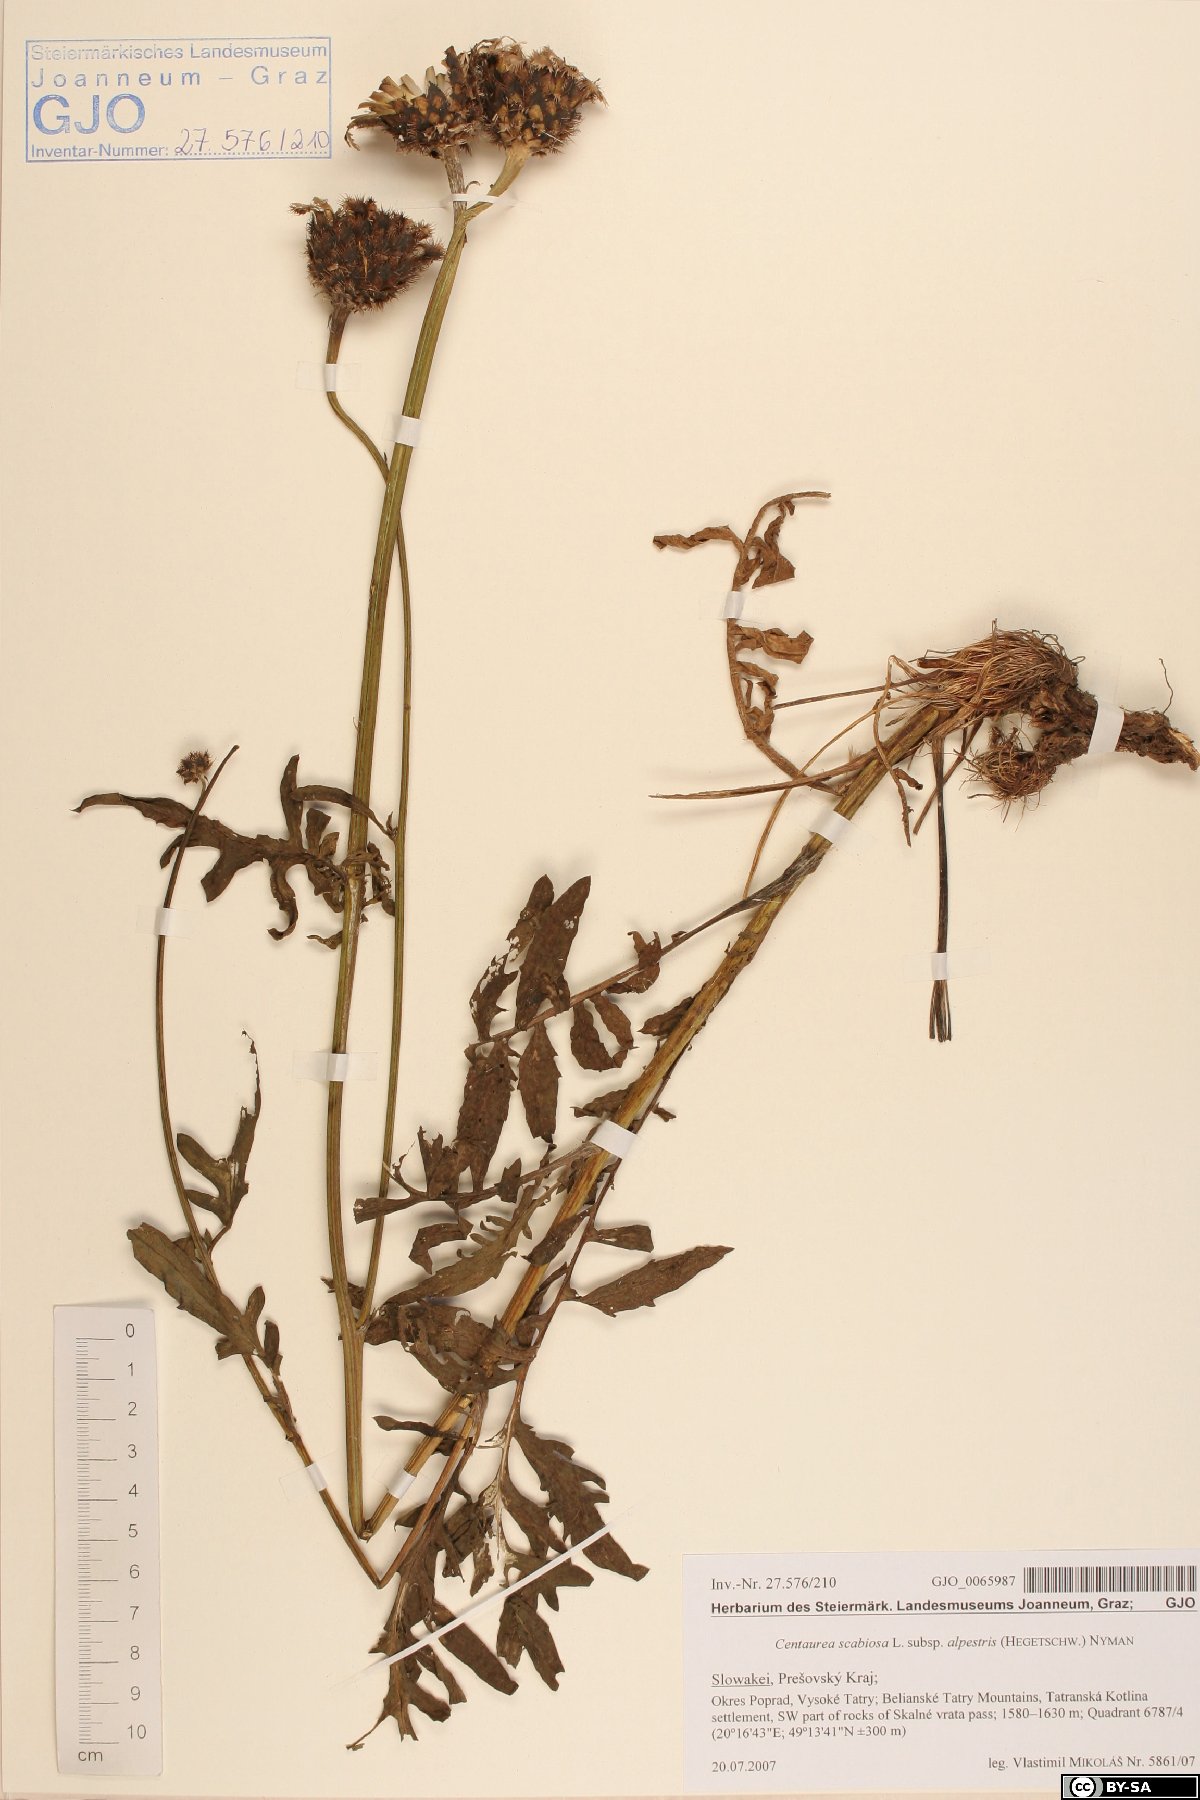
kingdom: Plantae
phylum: Tracheophyta
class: Magnoliopsida
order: Asterales
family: Asteraceae
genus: Centaurea
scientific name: Centaurea scabiosa
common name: Greater knapweed
